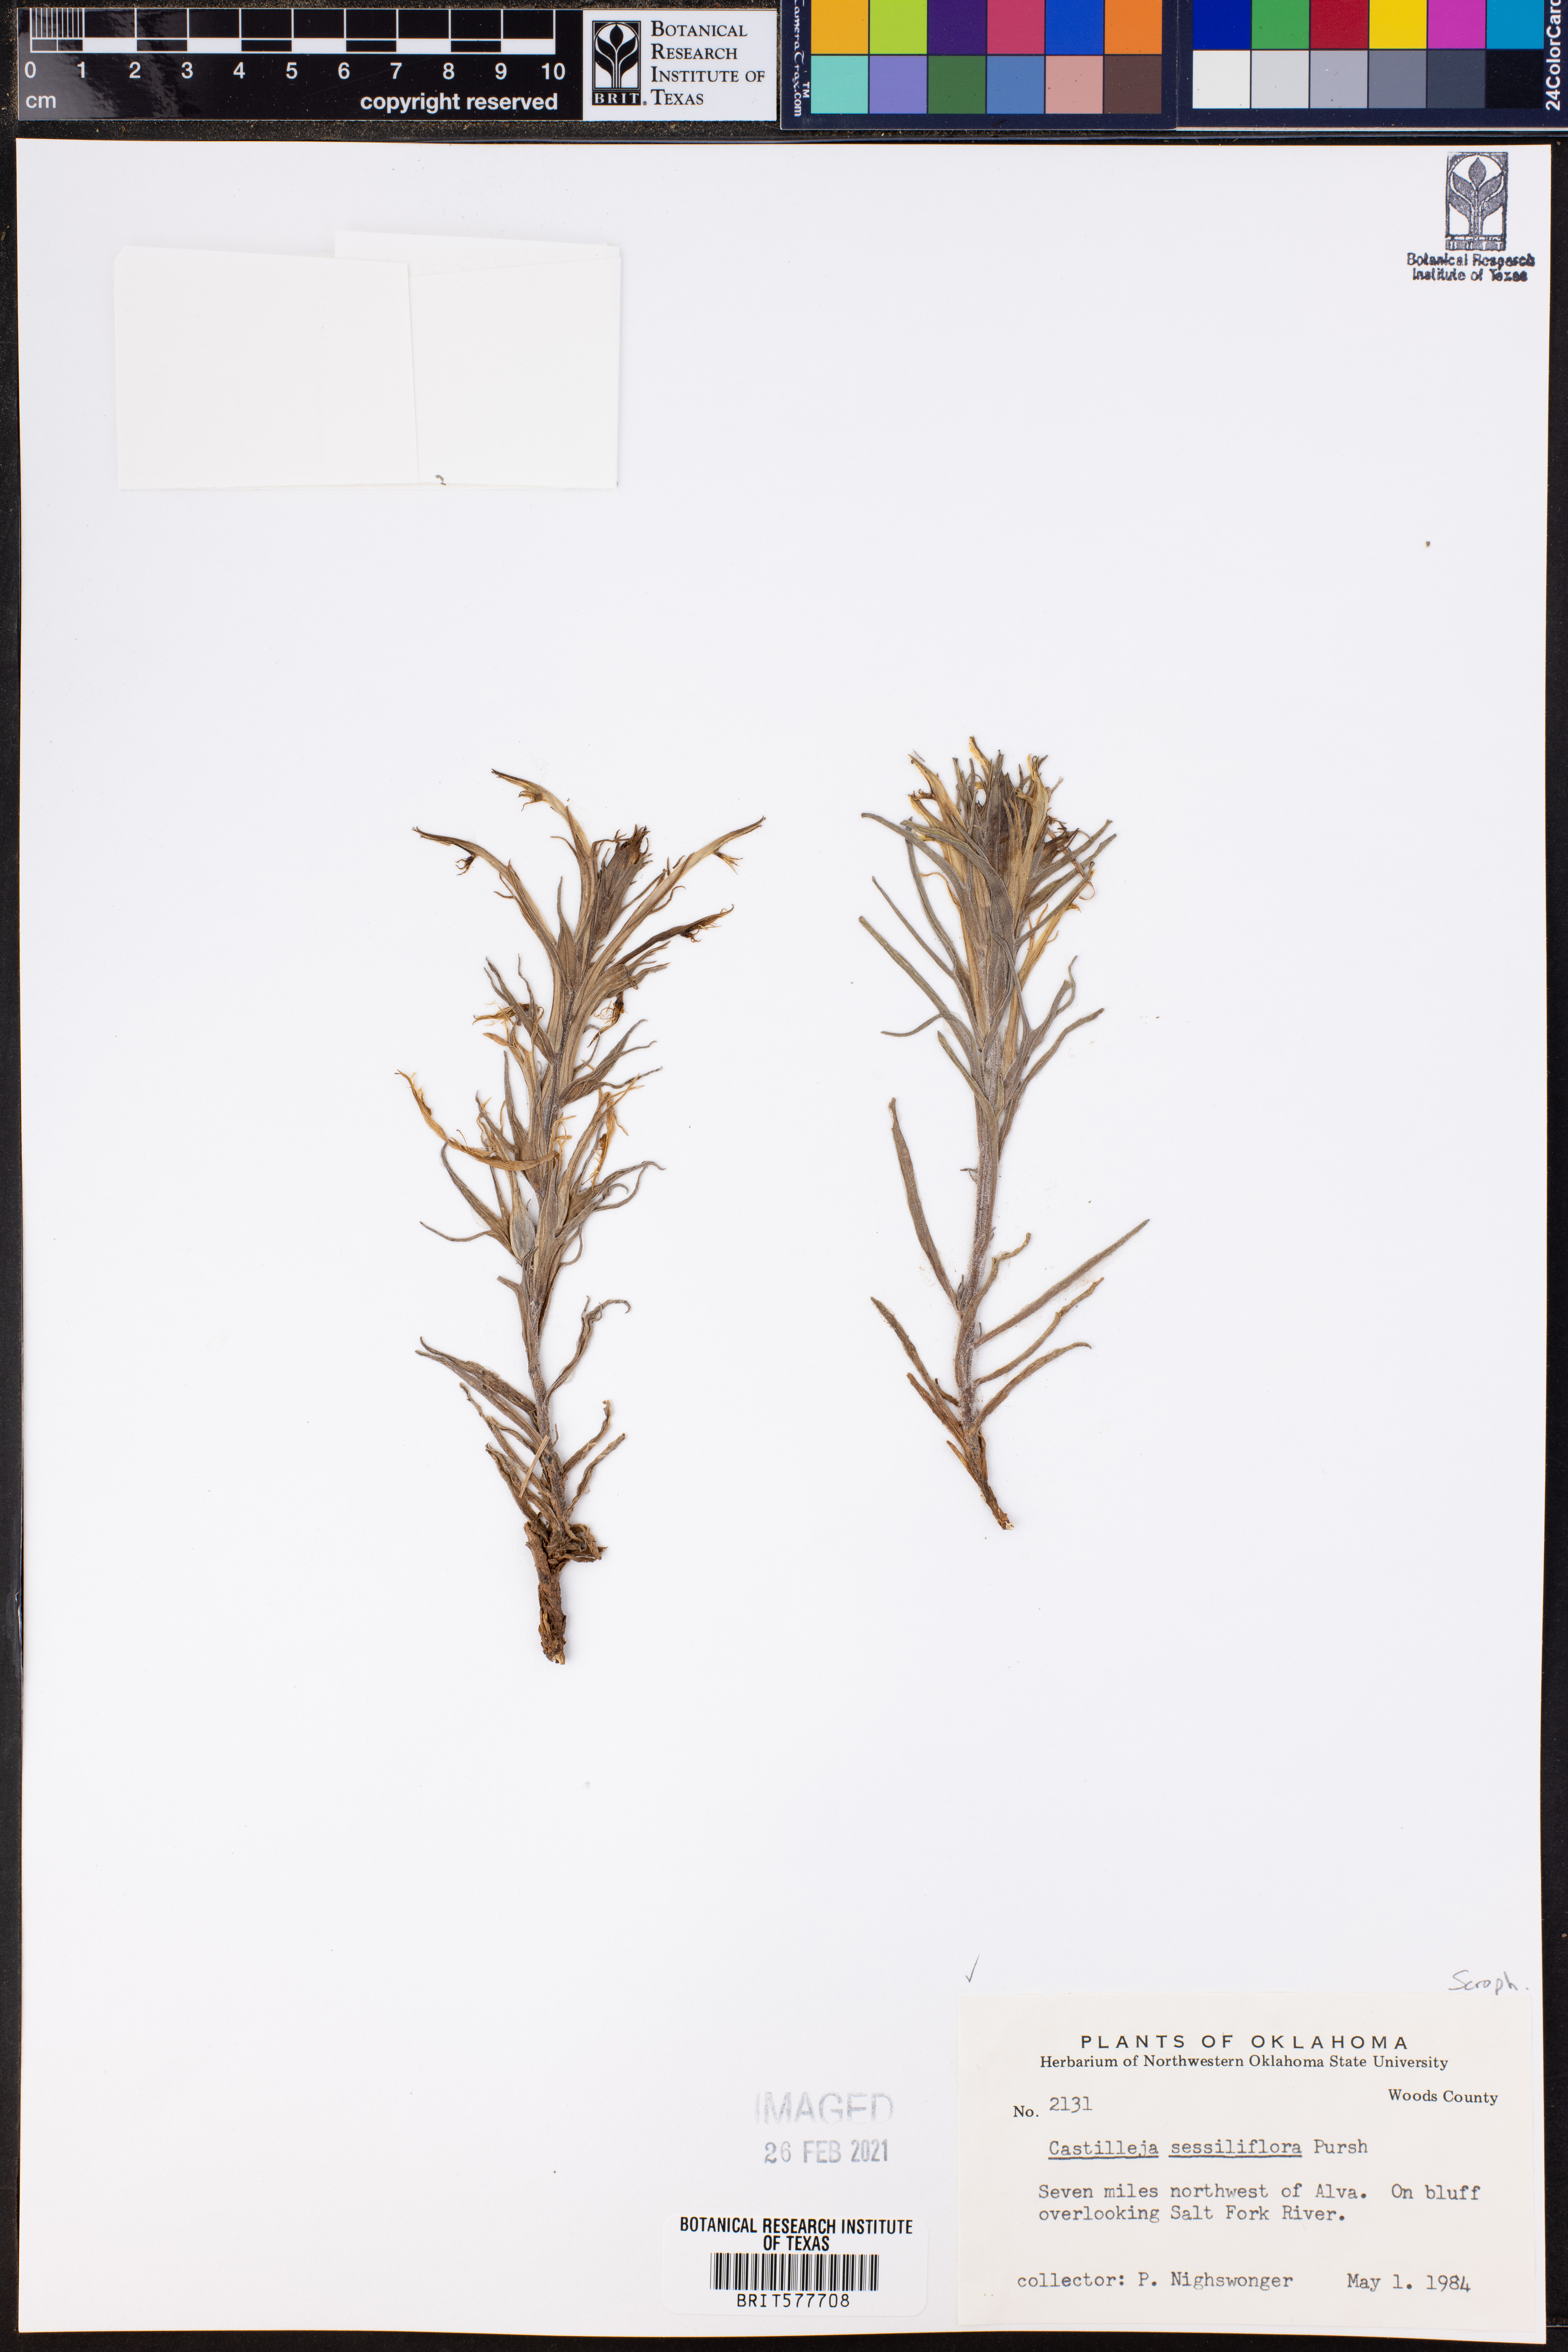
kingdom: Plantae
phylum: Tracheophyta
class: Magnoliopsida
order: Lamiales
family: Orobanchaceae
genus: Castilleja
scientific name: Castilleja sessiliflora
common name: Downy paintbrush
